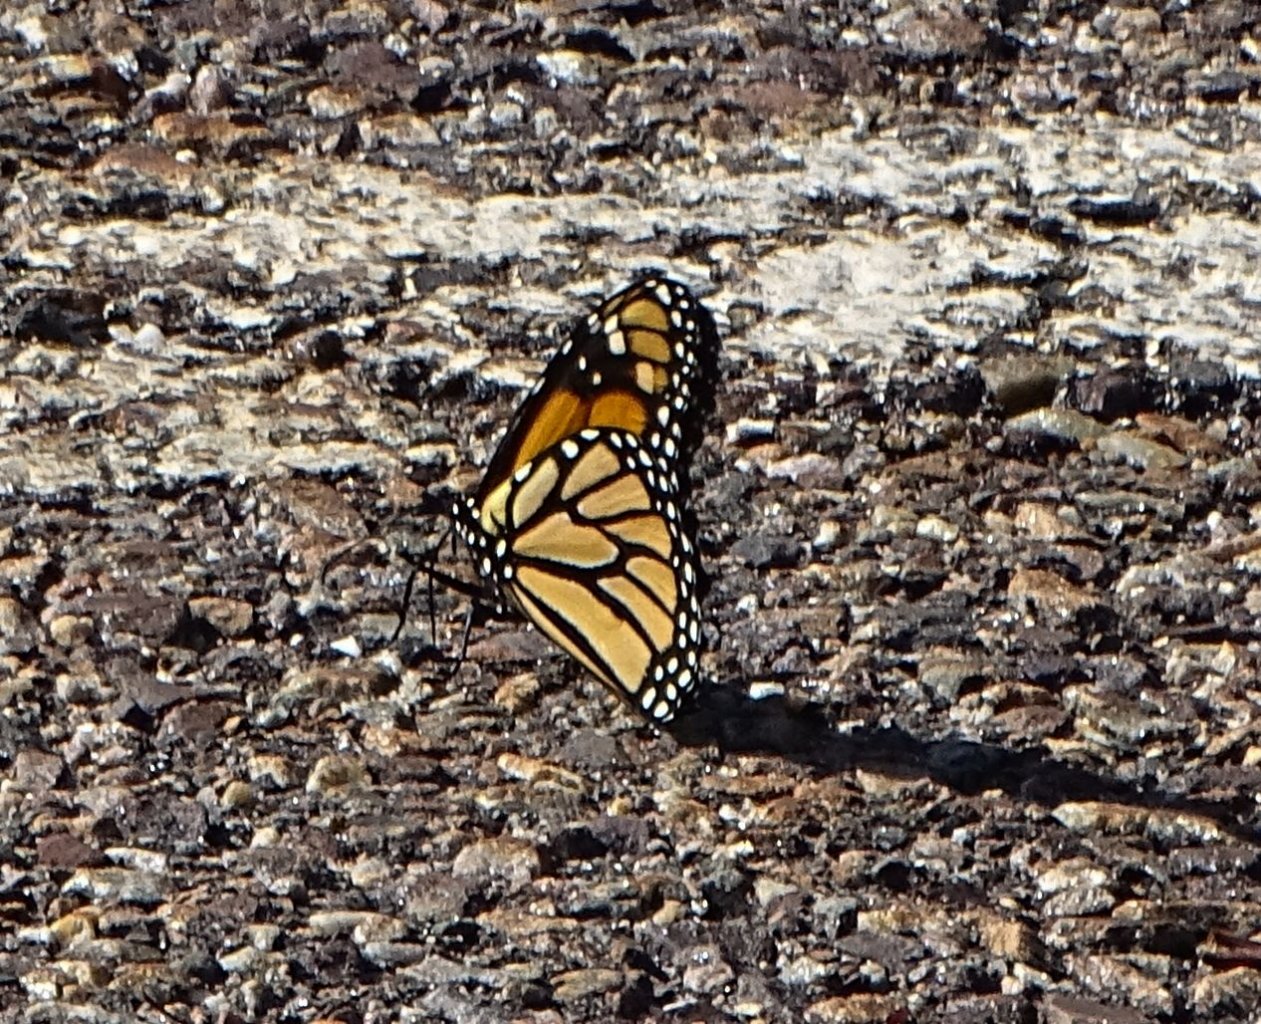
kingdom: Animalia
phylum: Arthropoda
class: Insecta
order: Lepidoptera
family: Nymphalidae
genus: Danaus
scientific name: Danaus plexippus
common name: Monarch
